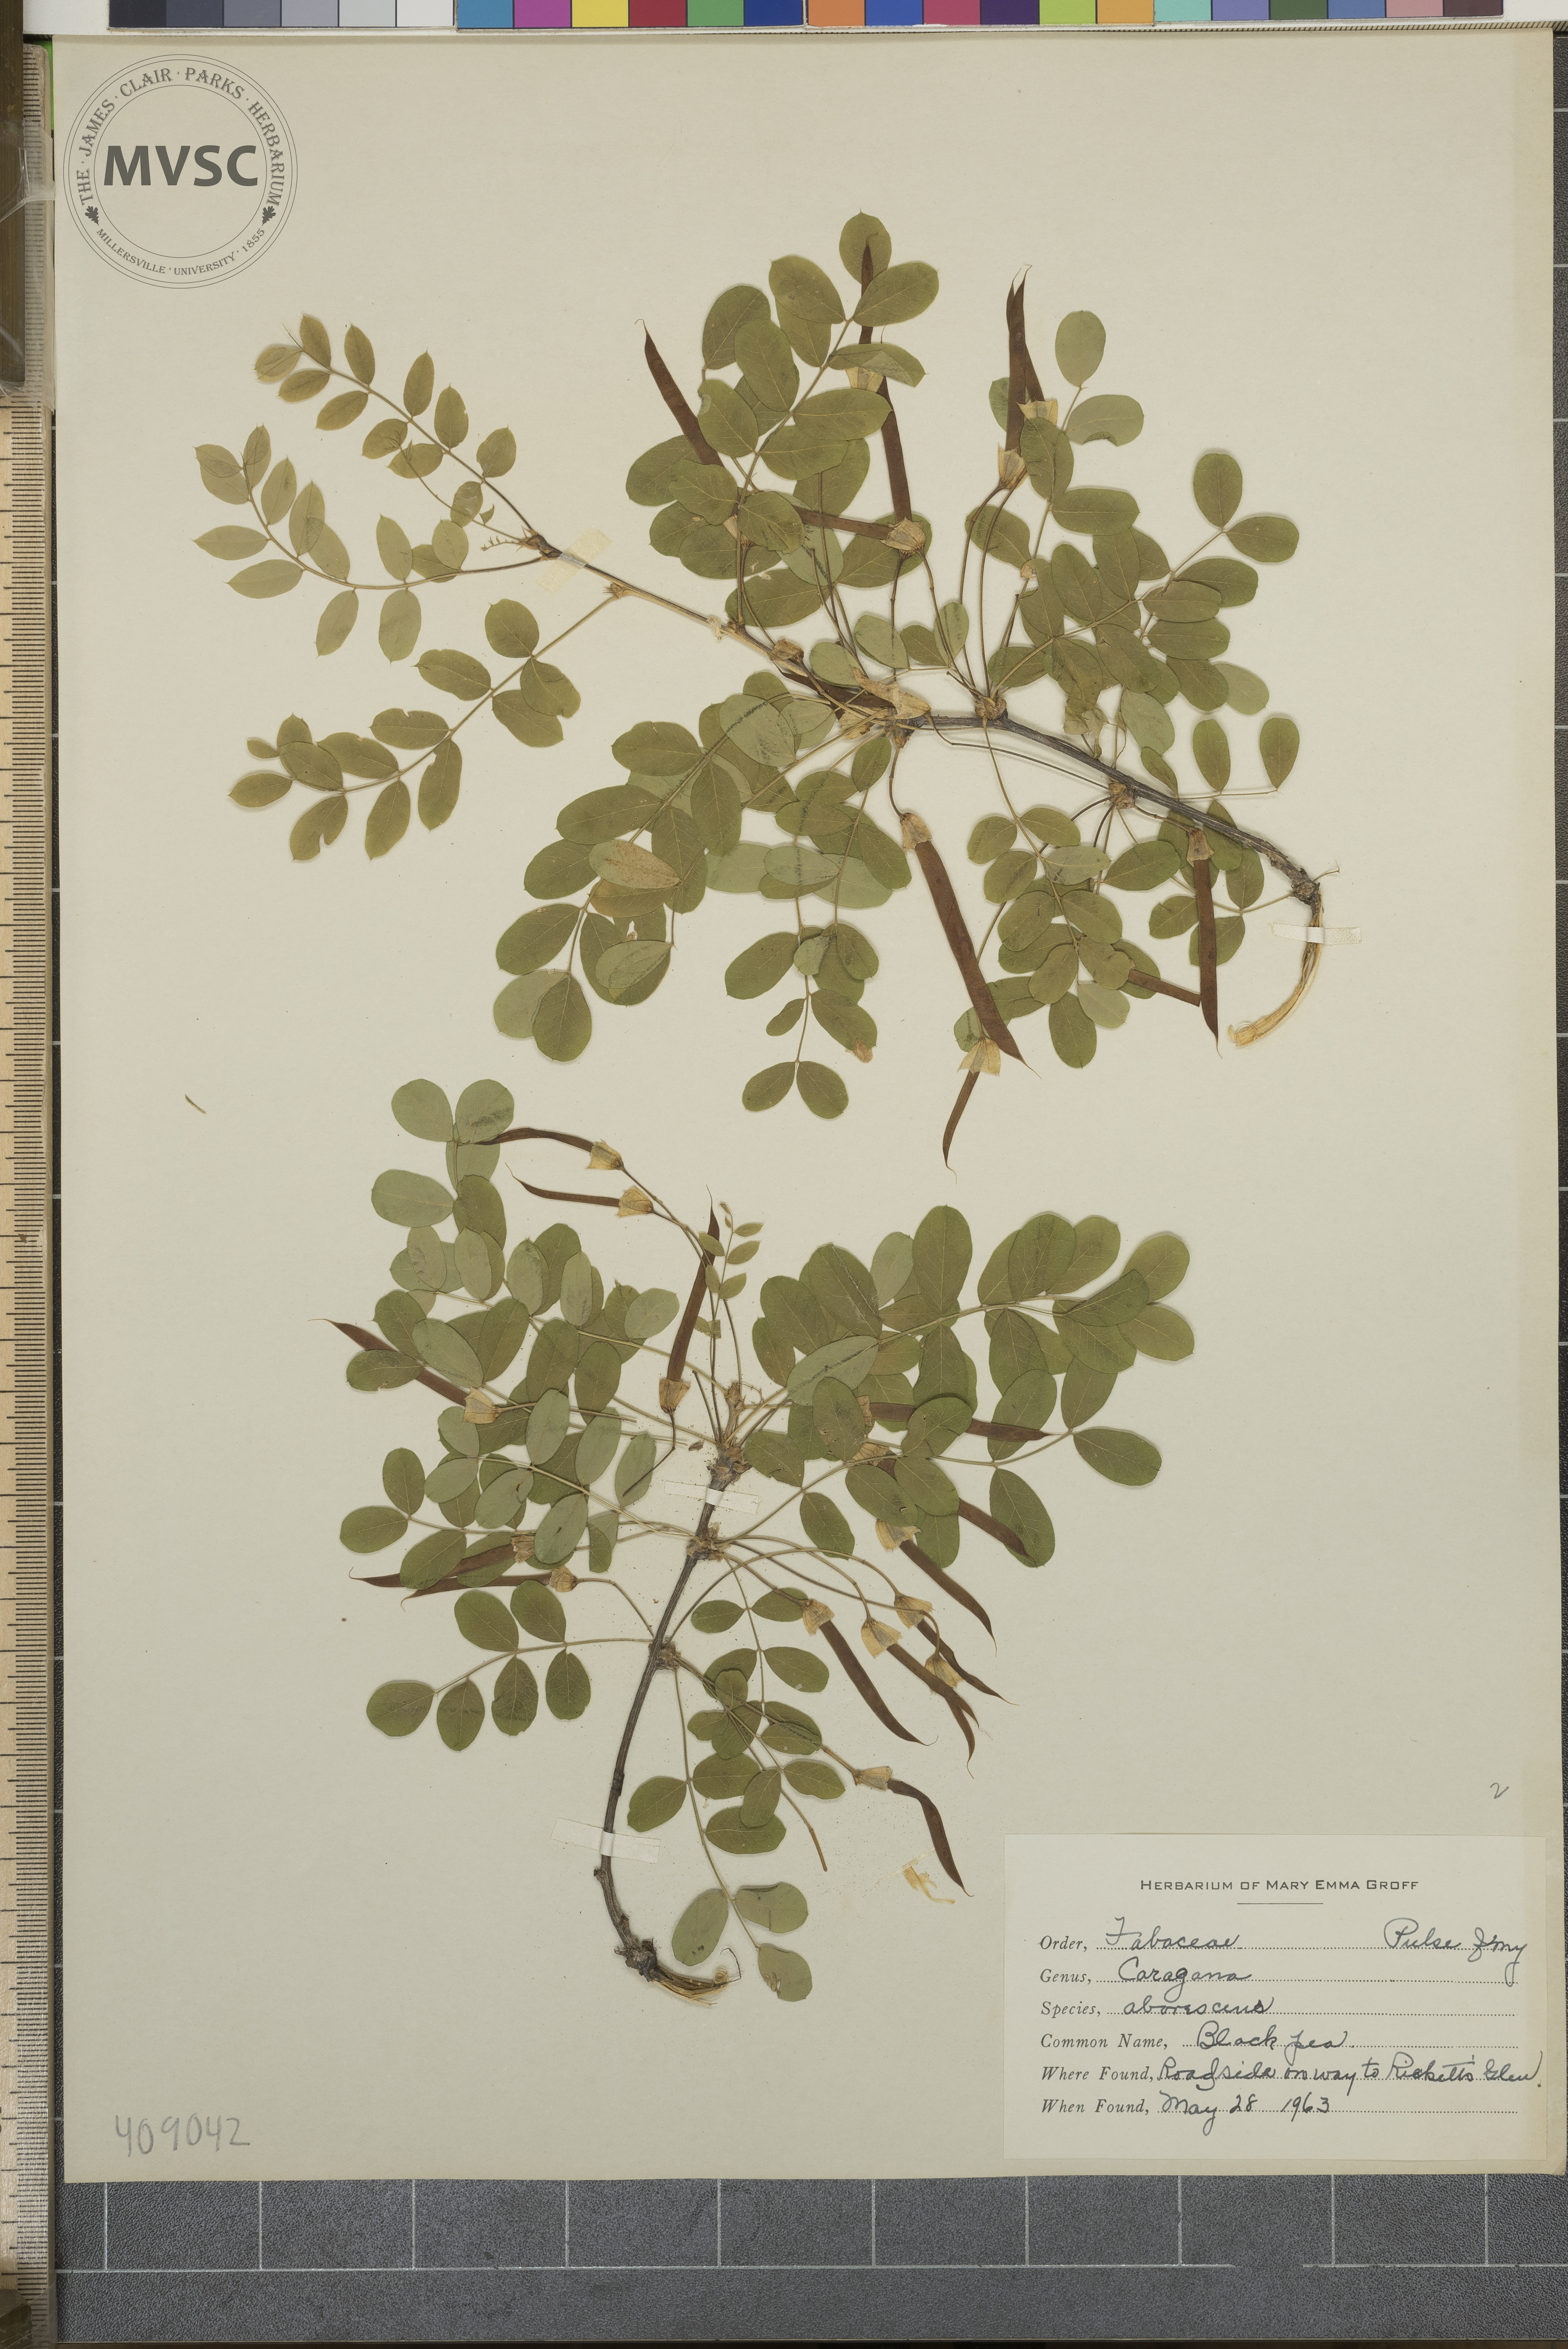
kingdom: Plantae
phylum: Tracheophyta
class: Magnoliopsida
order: Fabales
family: Fabaceae
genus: Caragana
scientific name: Caragana arborescens
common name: Black Pea
